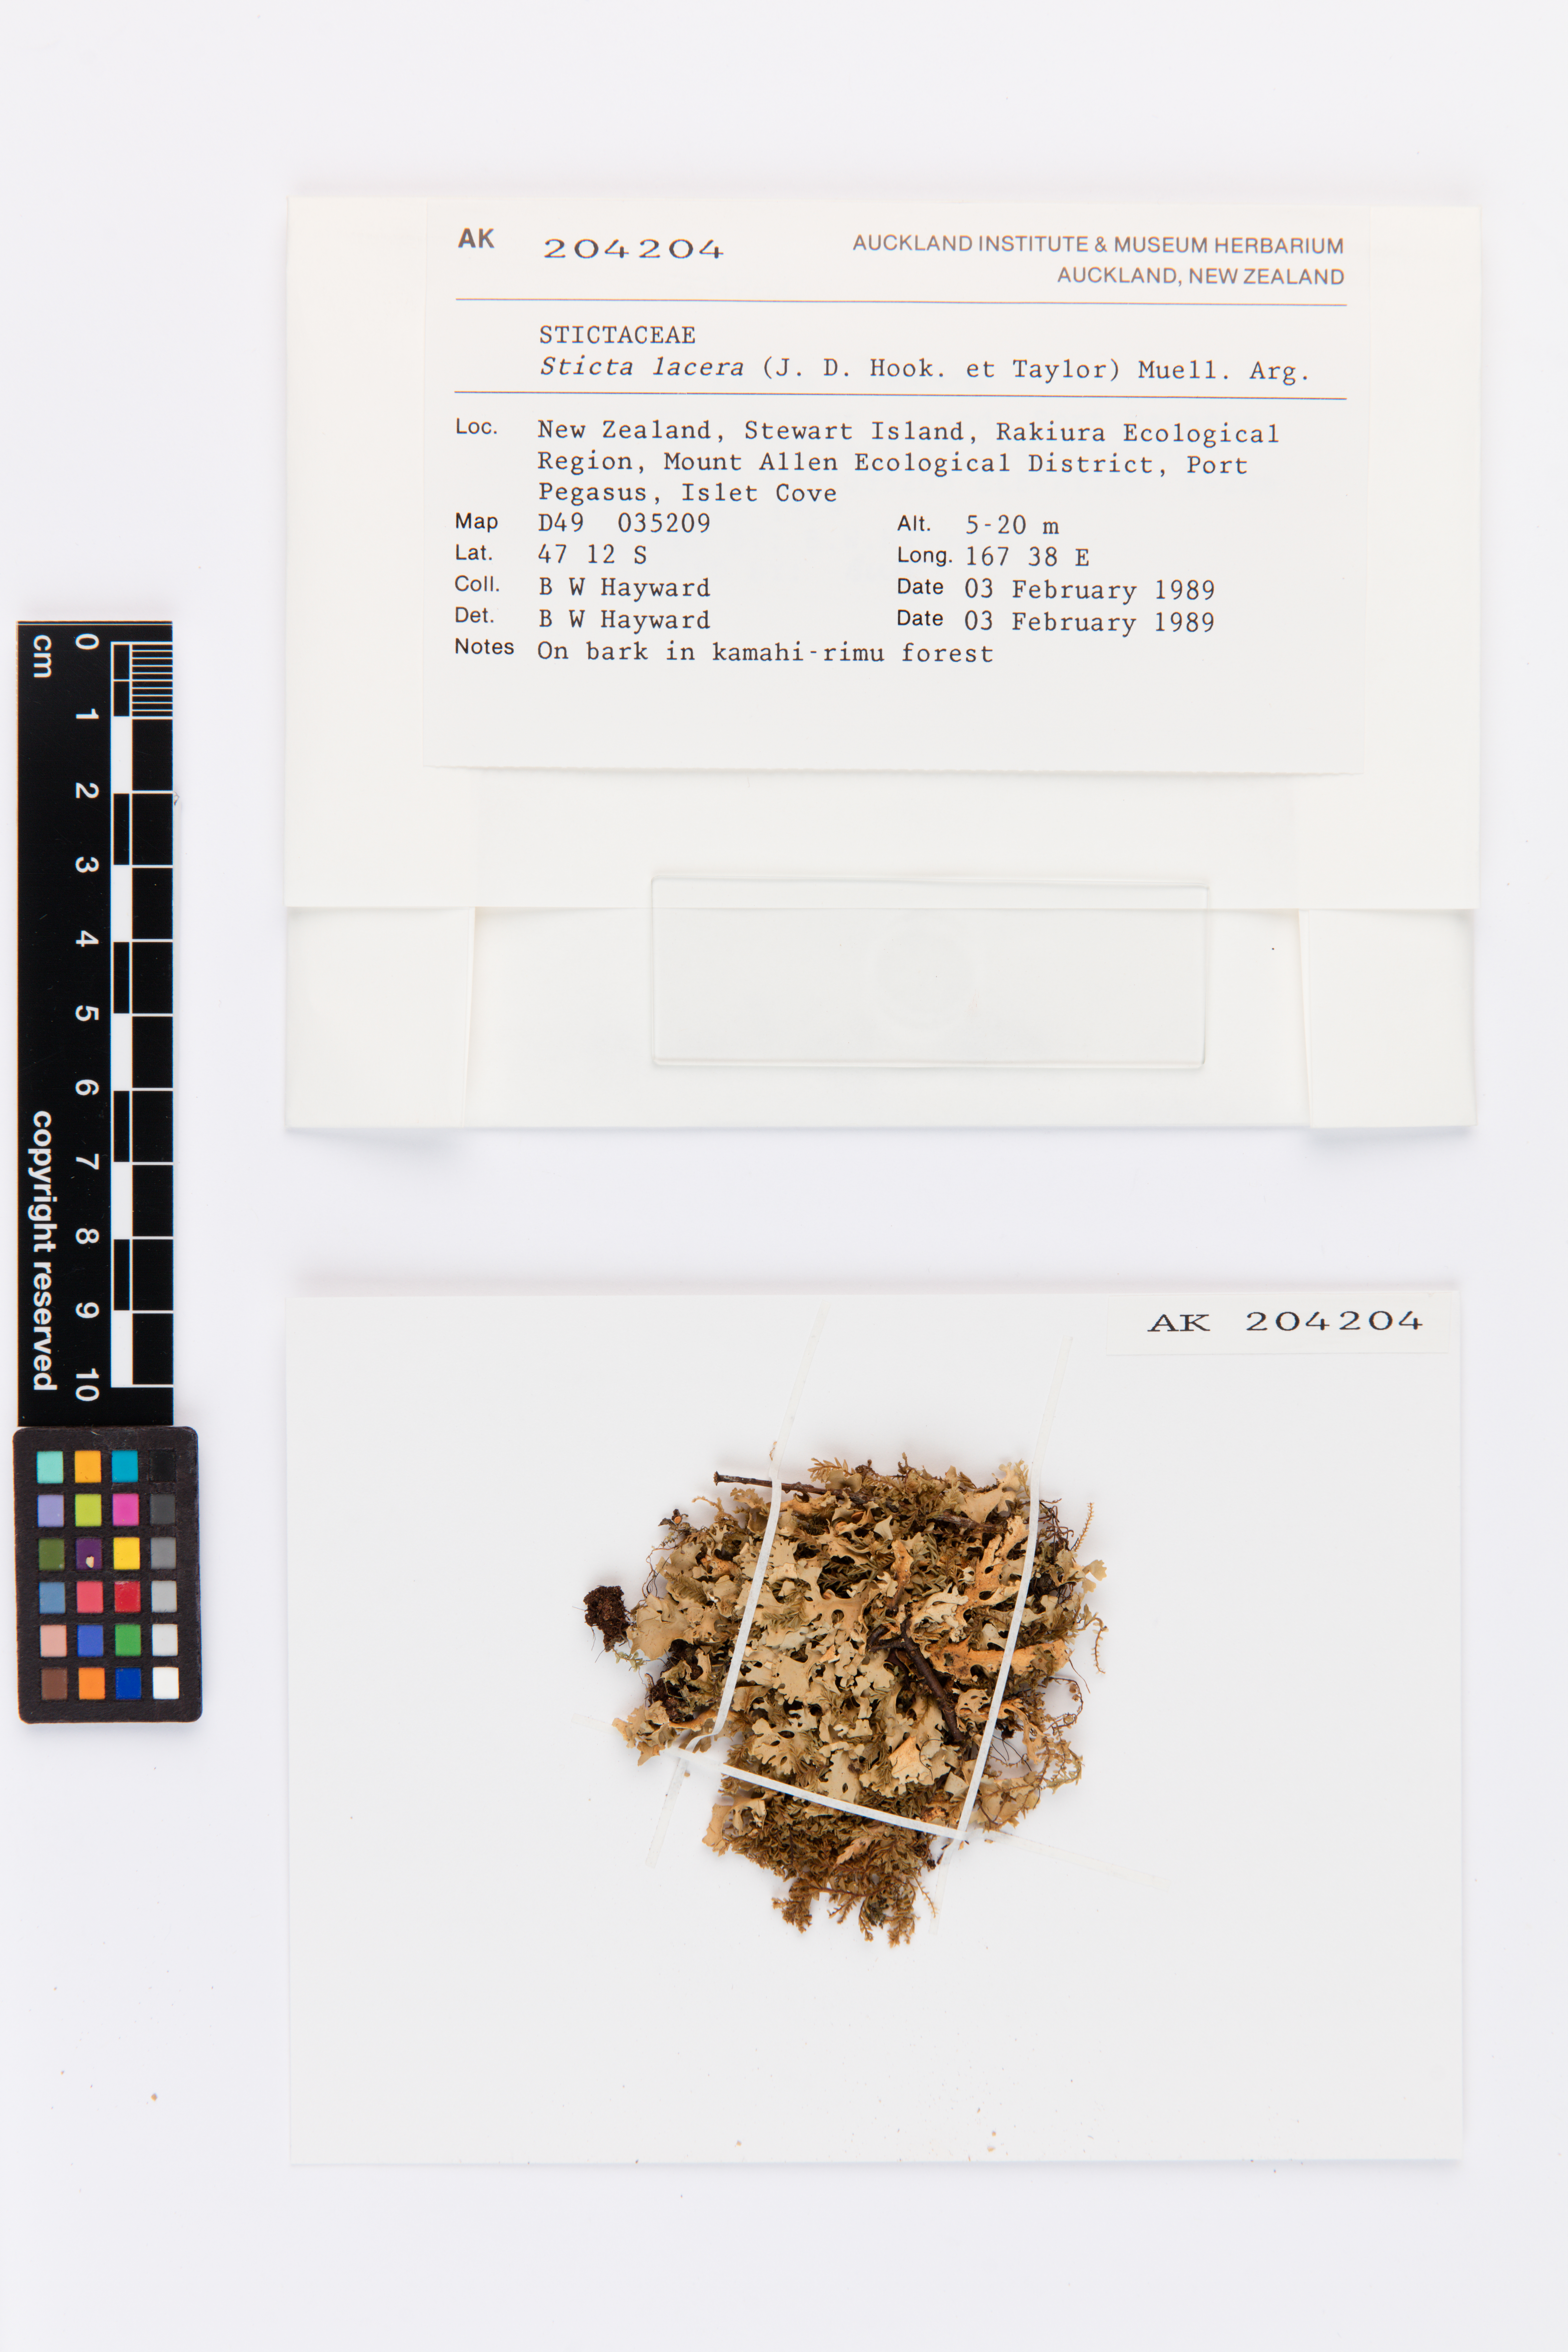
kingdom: Fungi
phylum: Ascomycota
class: Lecanoromycetes
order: Peltigerales
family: Lobariaceae
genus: Sticta
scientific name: Sticta
